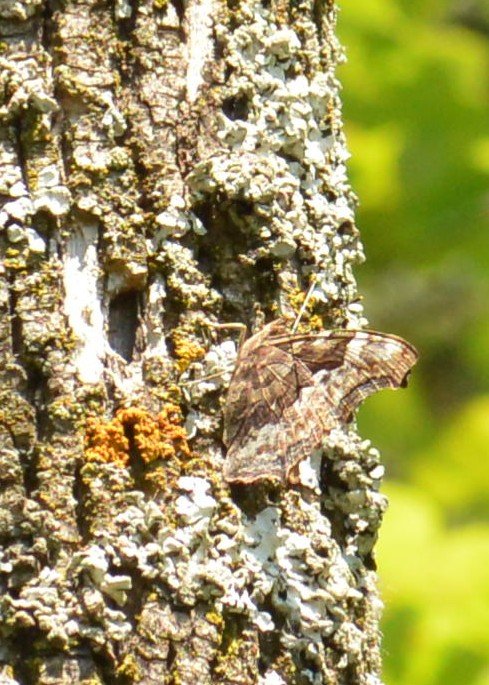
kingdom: Animalia
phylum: Arthropoda
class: Insecta
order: Lepidoptera
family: Nymphalidae
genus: Polygonia
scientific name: Polygonia vaualbum
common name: Compton Tortoiseshell
